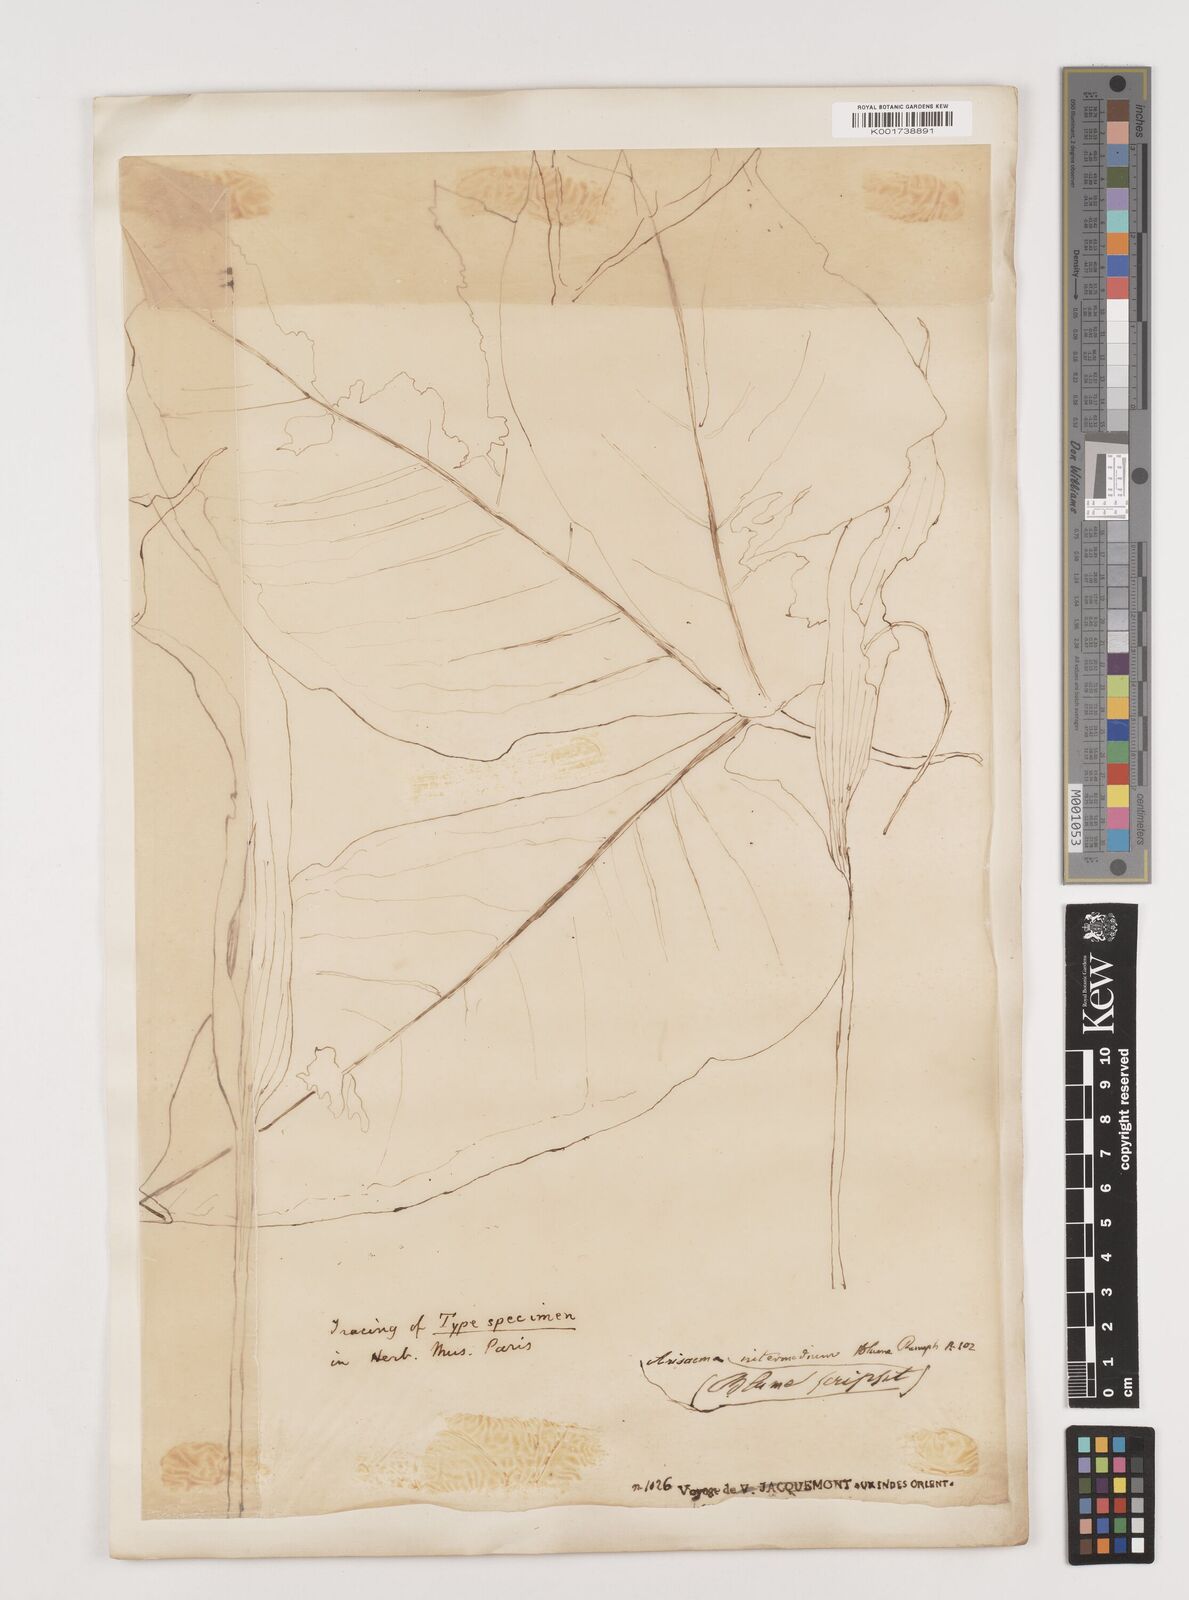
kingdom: Plantae
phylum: Tracheophyta
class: Liliopsida
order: Alismatales
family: Araceae
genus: Arisaema
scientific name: Arisaema intermedium
